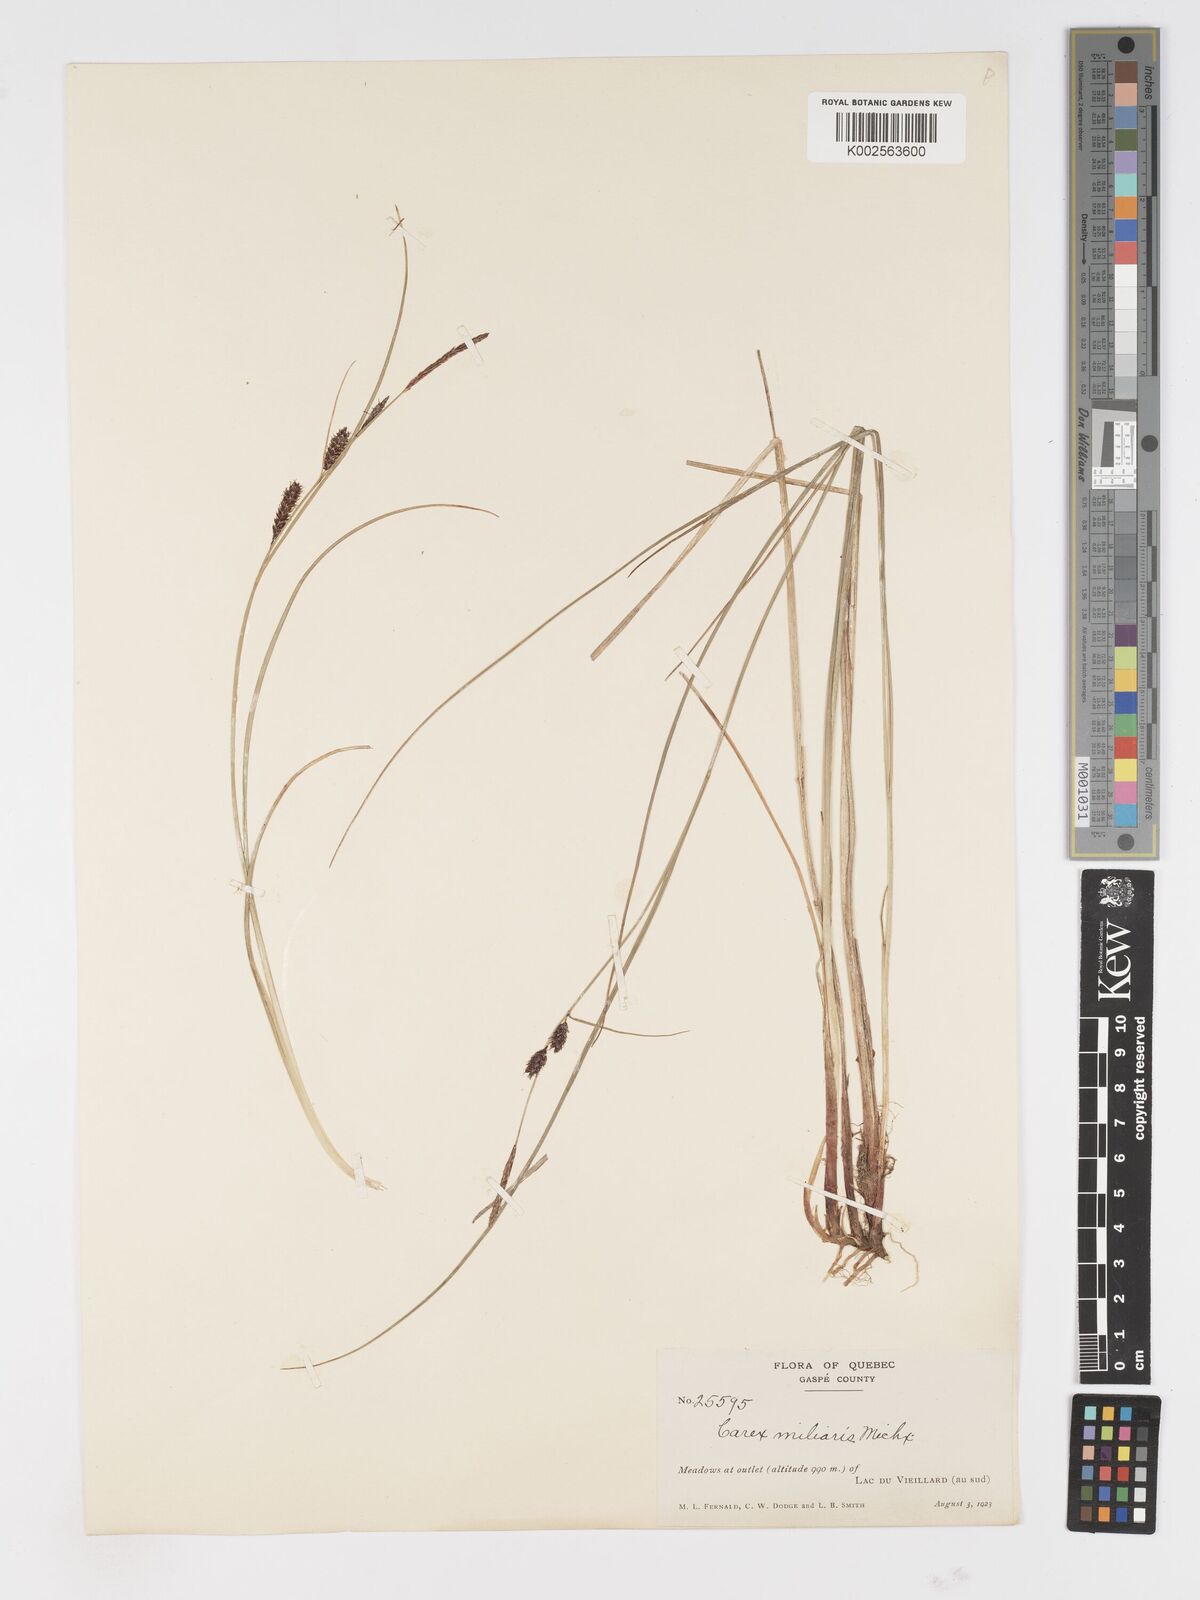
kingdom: Plantae
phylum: Tracheophyta
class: Liliopsida
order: Poales
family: Cyperaceae
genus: Carex
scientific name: Carex miliaris
